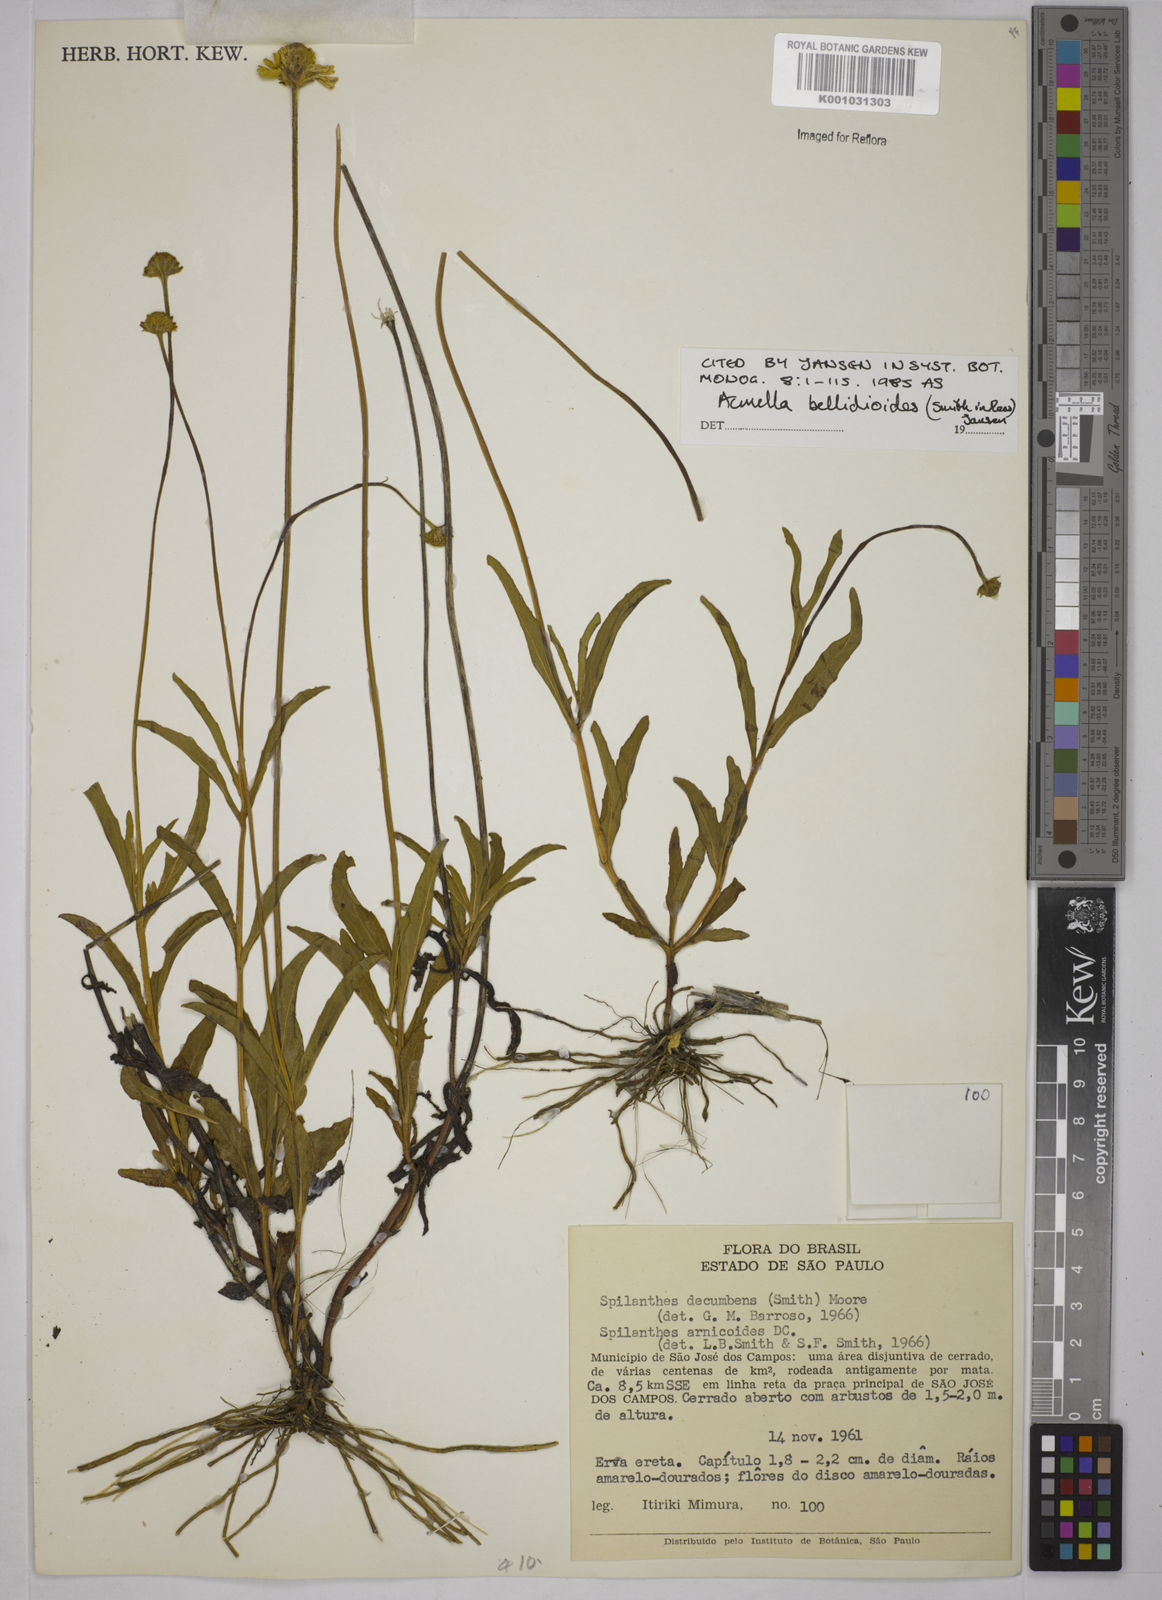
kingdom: Plantae
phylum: Tracheophyta
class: Magnoliopsida
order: Asterales
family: Asteraceae
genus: Acmella
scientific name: Acmella bellidioides
